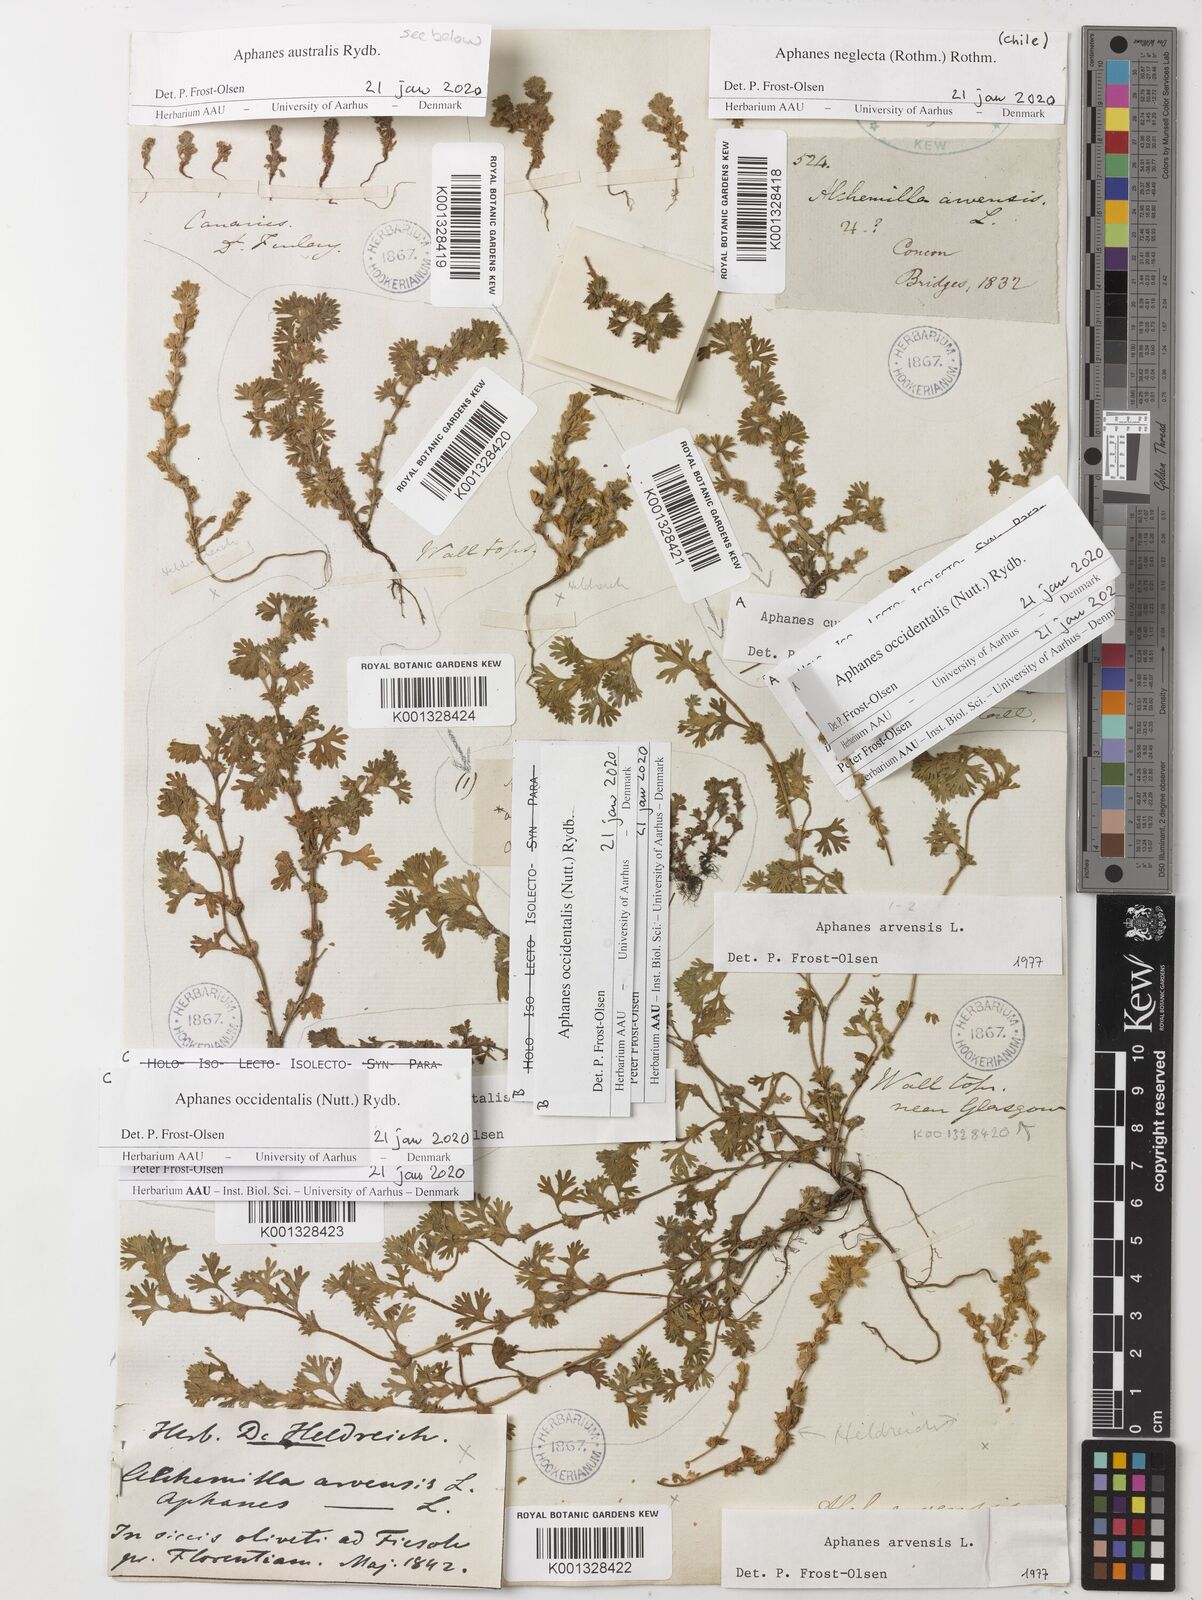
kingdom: Plantae
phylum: Tracheophyta
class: Magnoliopsida
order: Rosales
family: Rosaceae
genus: Aphanes
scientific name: Aphanes neglecta
